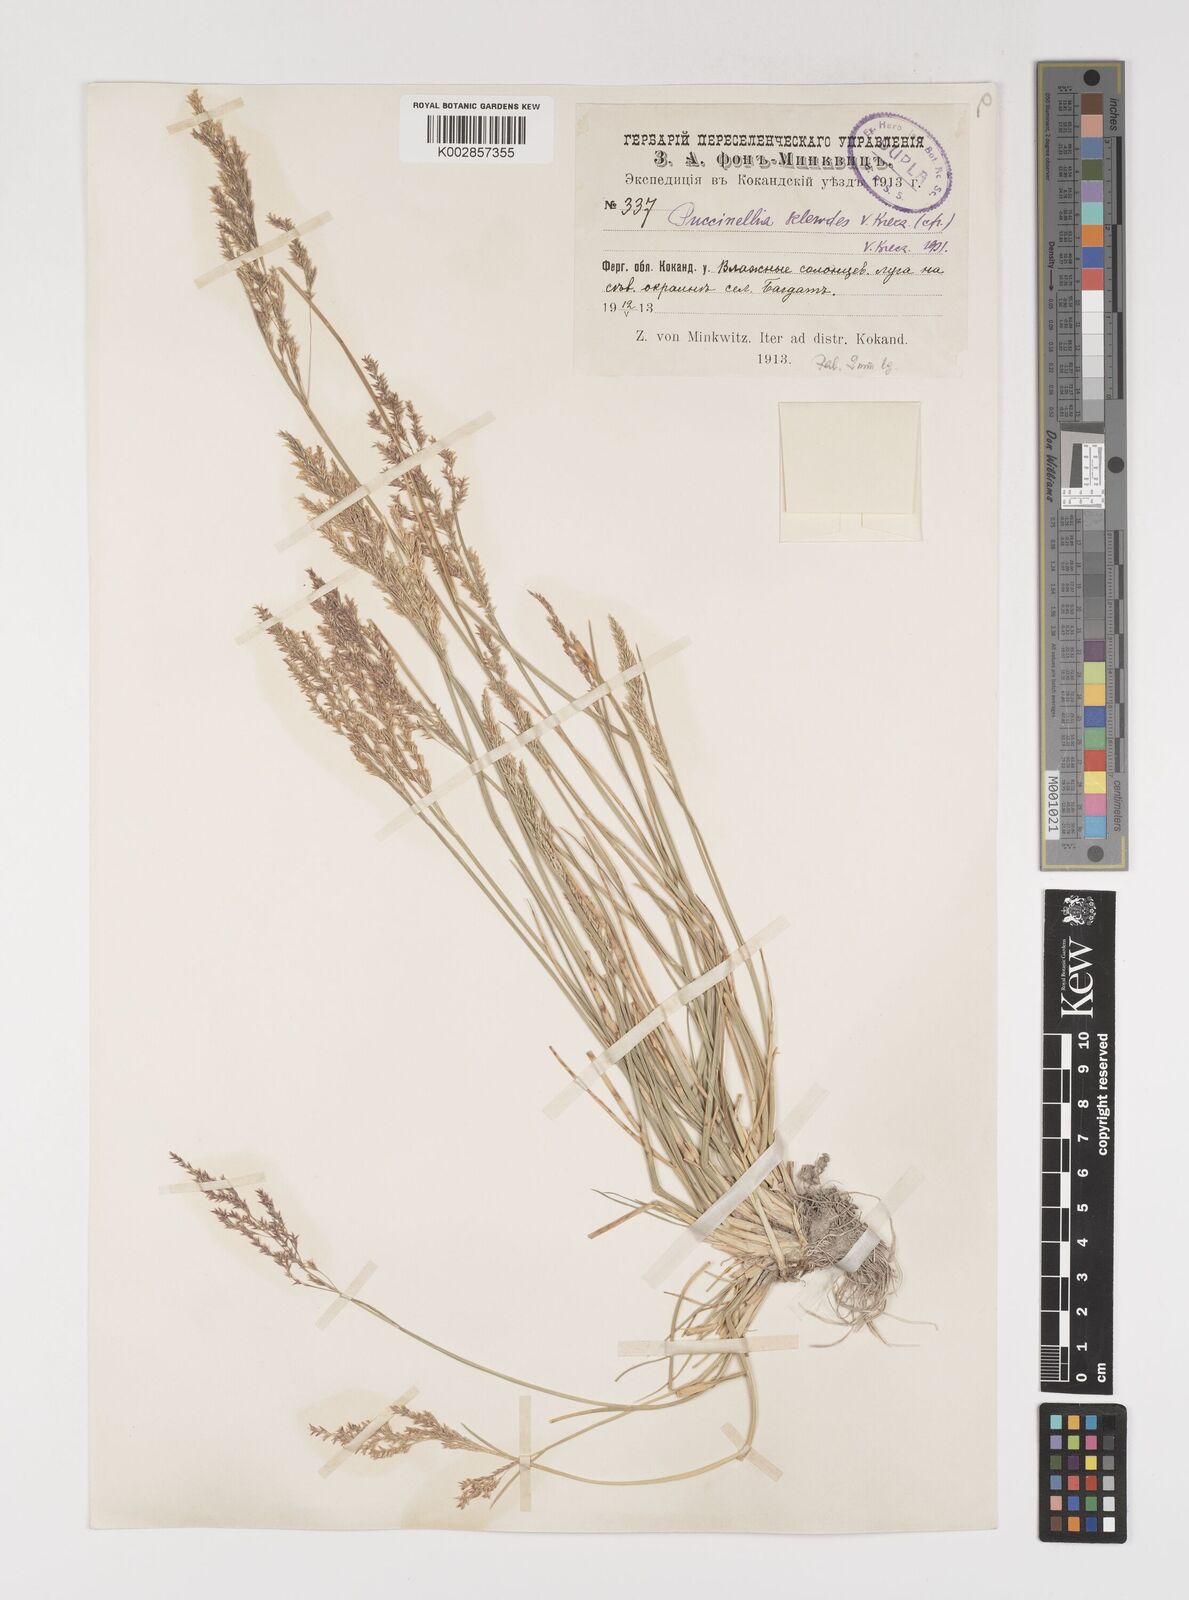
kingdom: Plantae
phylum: Tracheophyta
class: Liliopsida
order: Poales
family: Poaceae
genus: Puccinellia
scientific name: Puccinellia gigantea
